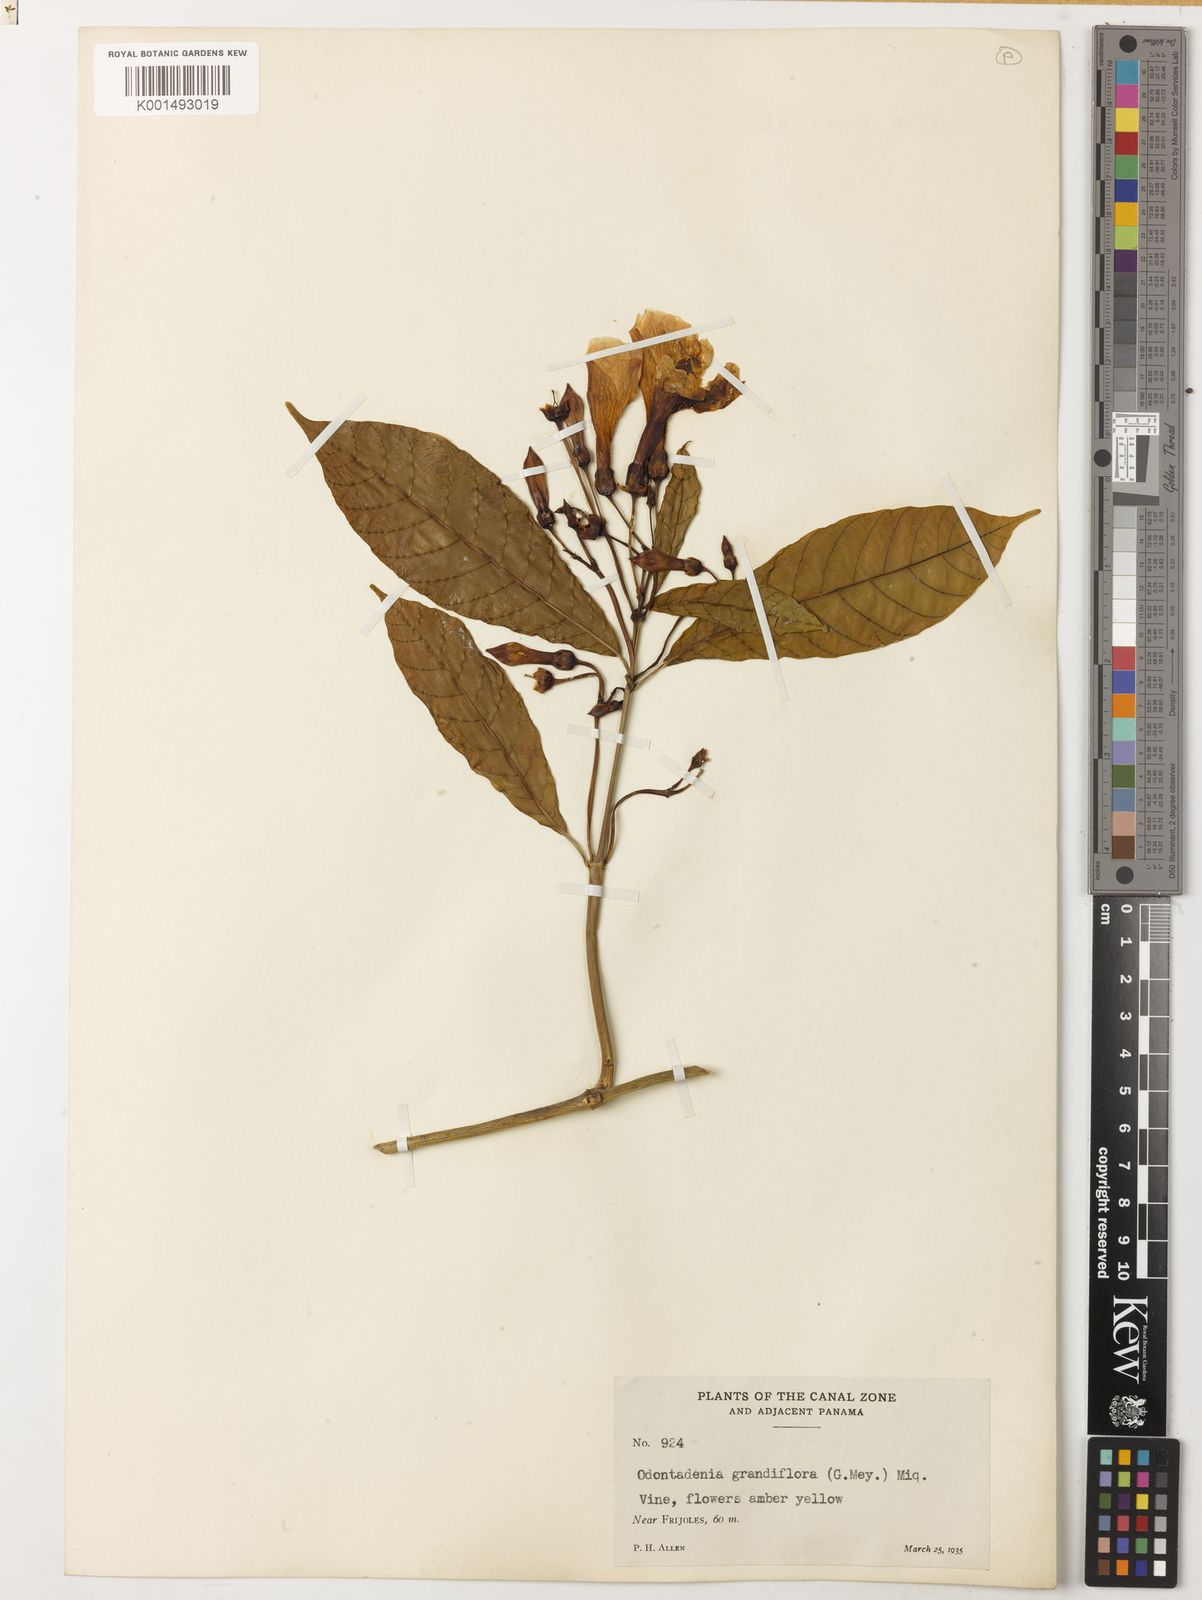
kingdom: Plantae
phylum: Tracheophyta
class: Magnoliopsida
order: Gentianales
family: Apocynaceae
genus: Odontadenia
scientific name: Odontadenia semidigyna
